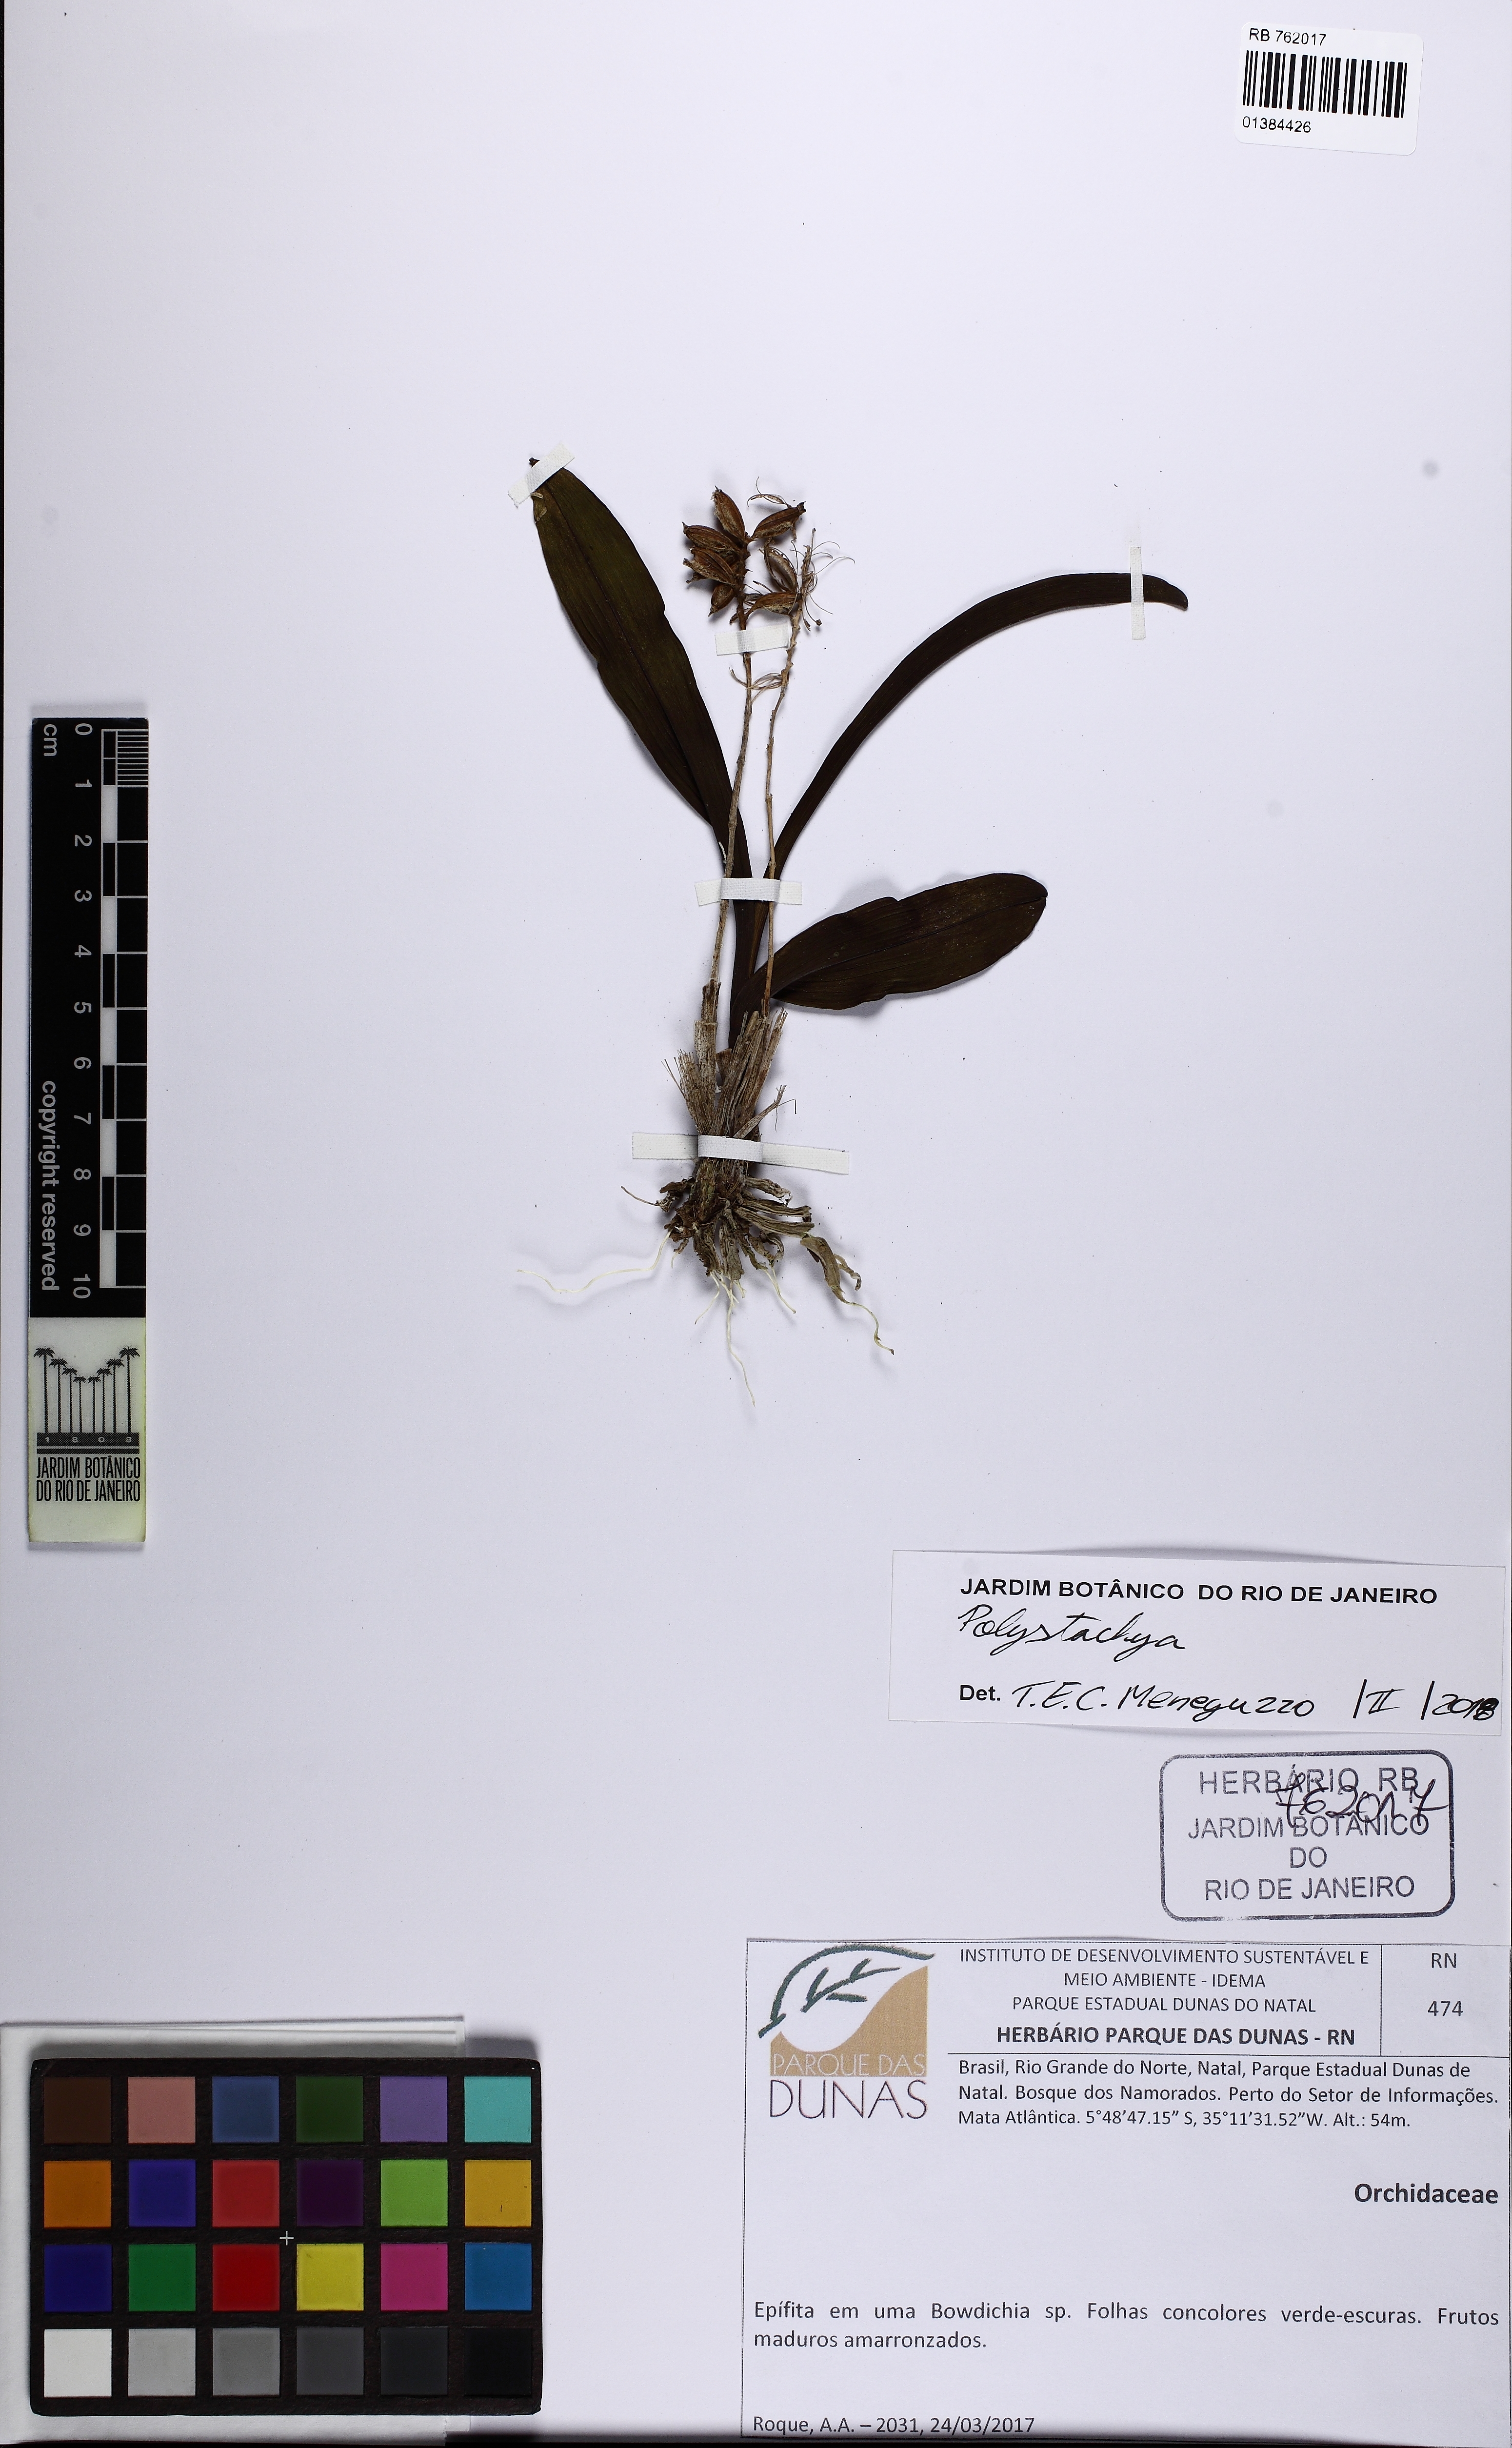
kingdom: Plantae
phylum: Tracheophyta
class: Liliopsida
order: Asparagales
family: Orchidaceae
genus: Polystachya
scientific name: Polystachya
